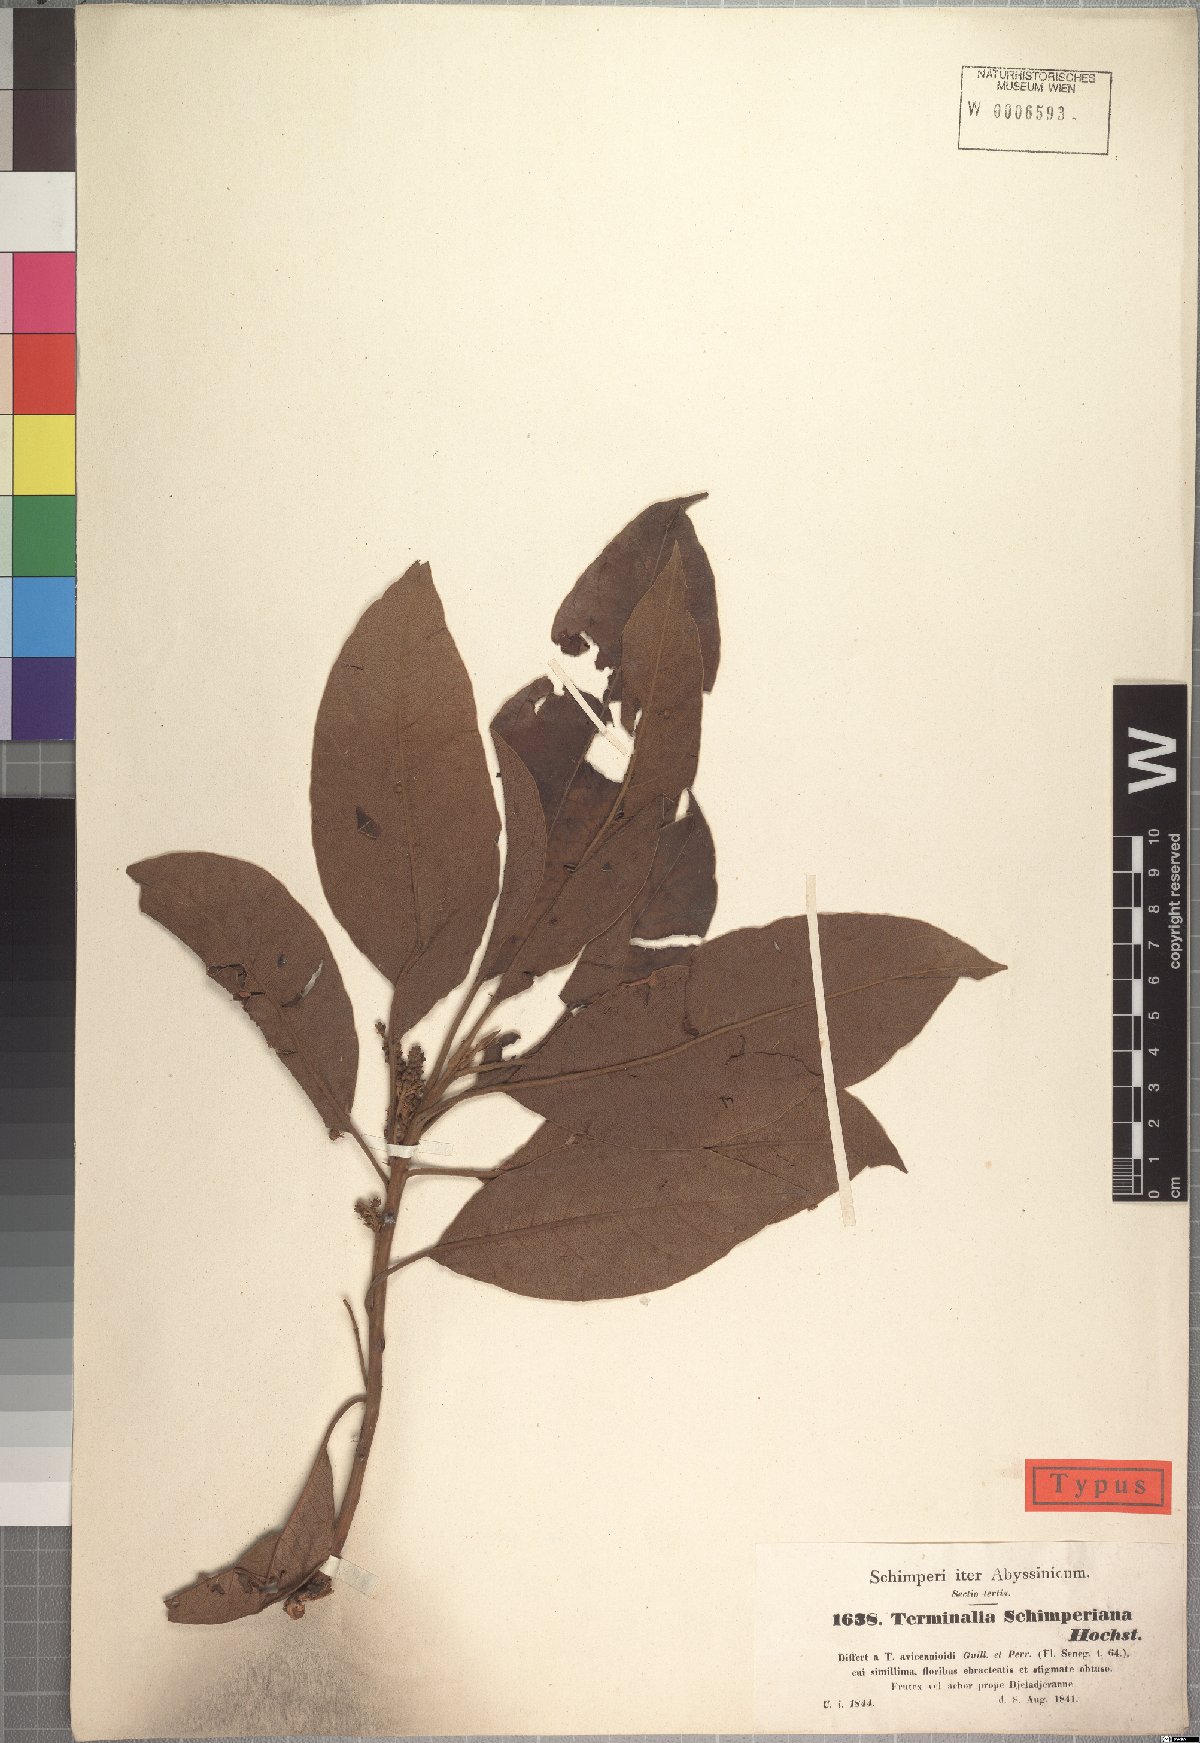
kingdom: Plantae
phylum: Tracheophyta
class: Magnoliopsida
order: Myrtales
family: Combretaceae
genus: Terminalia
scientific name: Terminalia schimperiana
